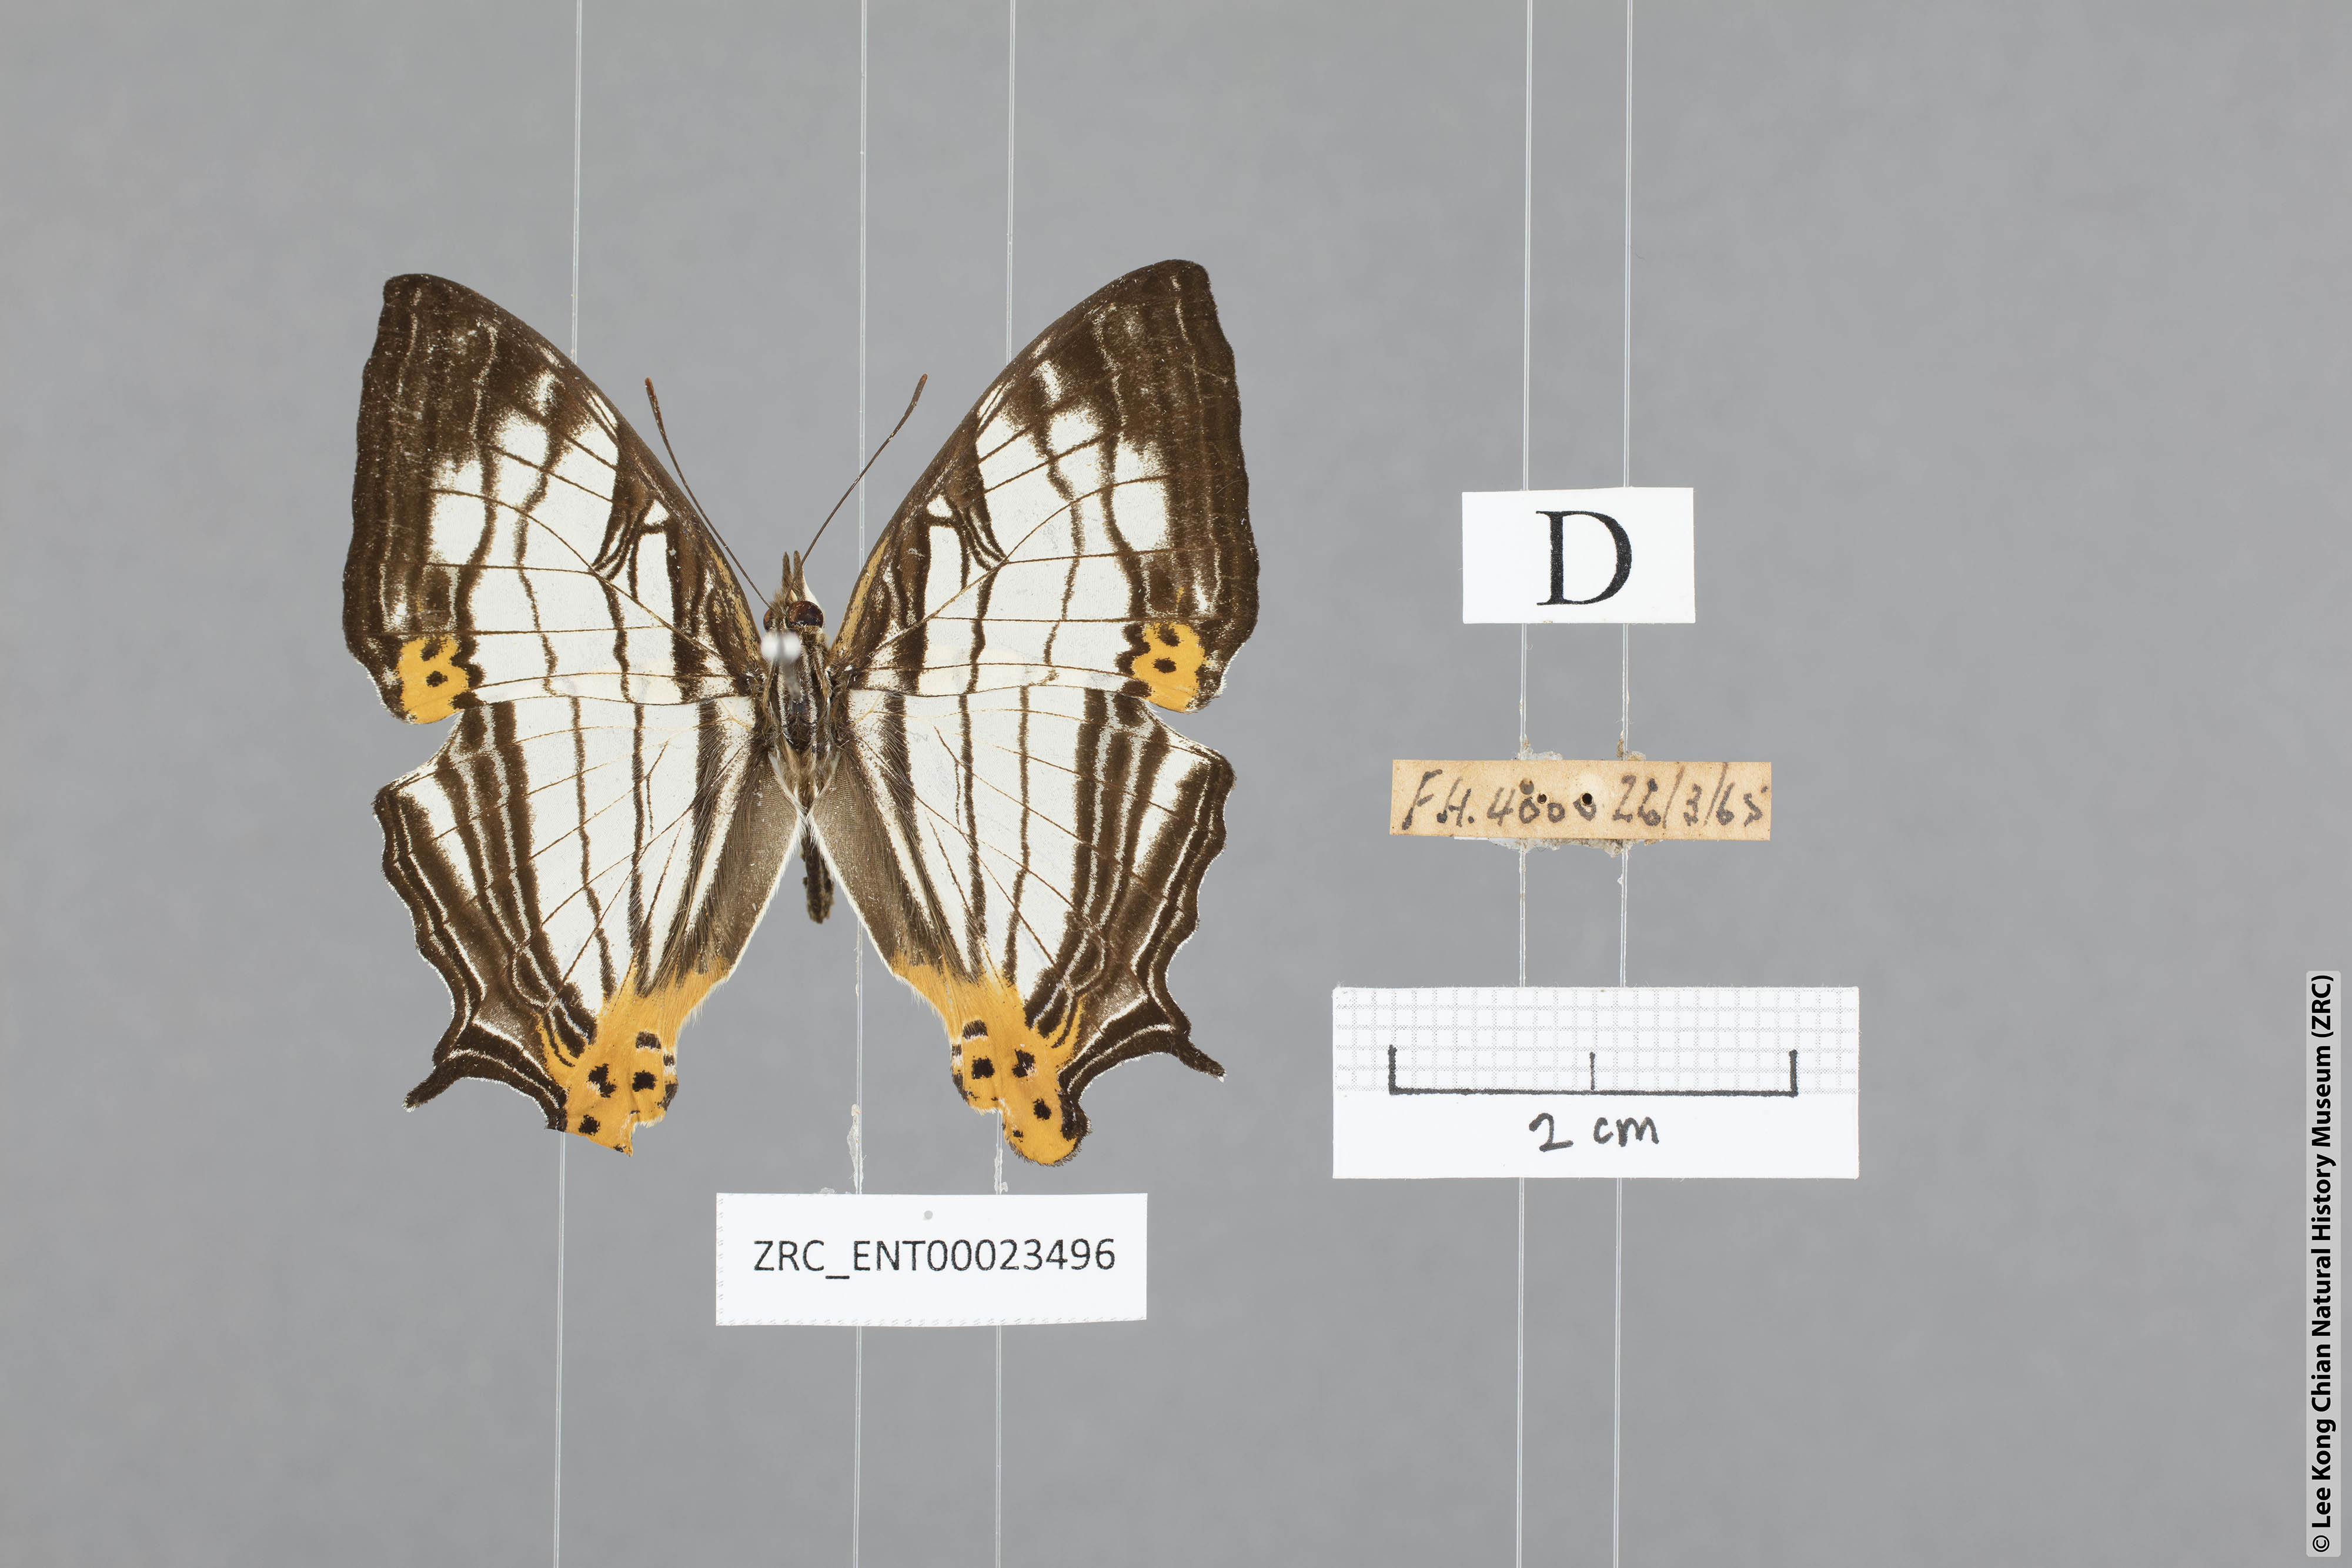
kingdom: Animalia
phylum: Arthropoda
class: Insecta
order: Lepidoptera
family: Nymphalidae
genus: Cyrestis
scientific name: Cyrestis maenalis
